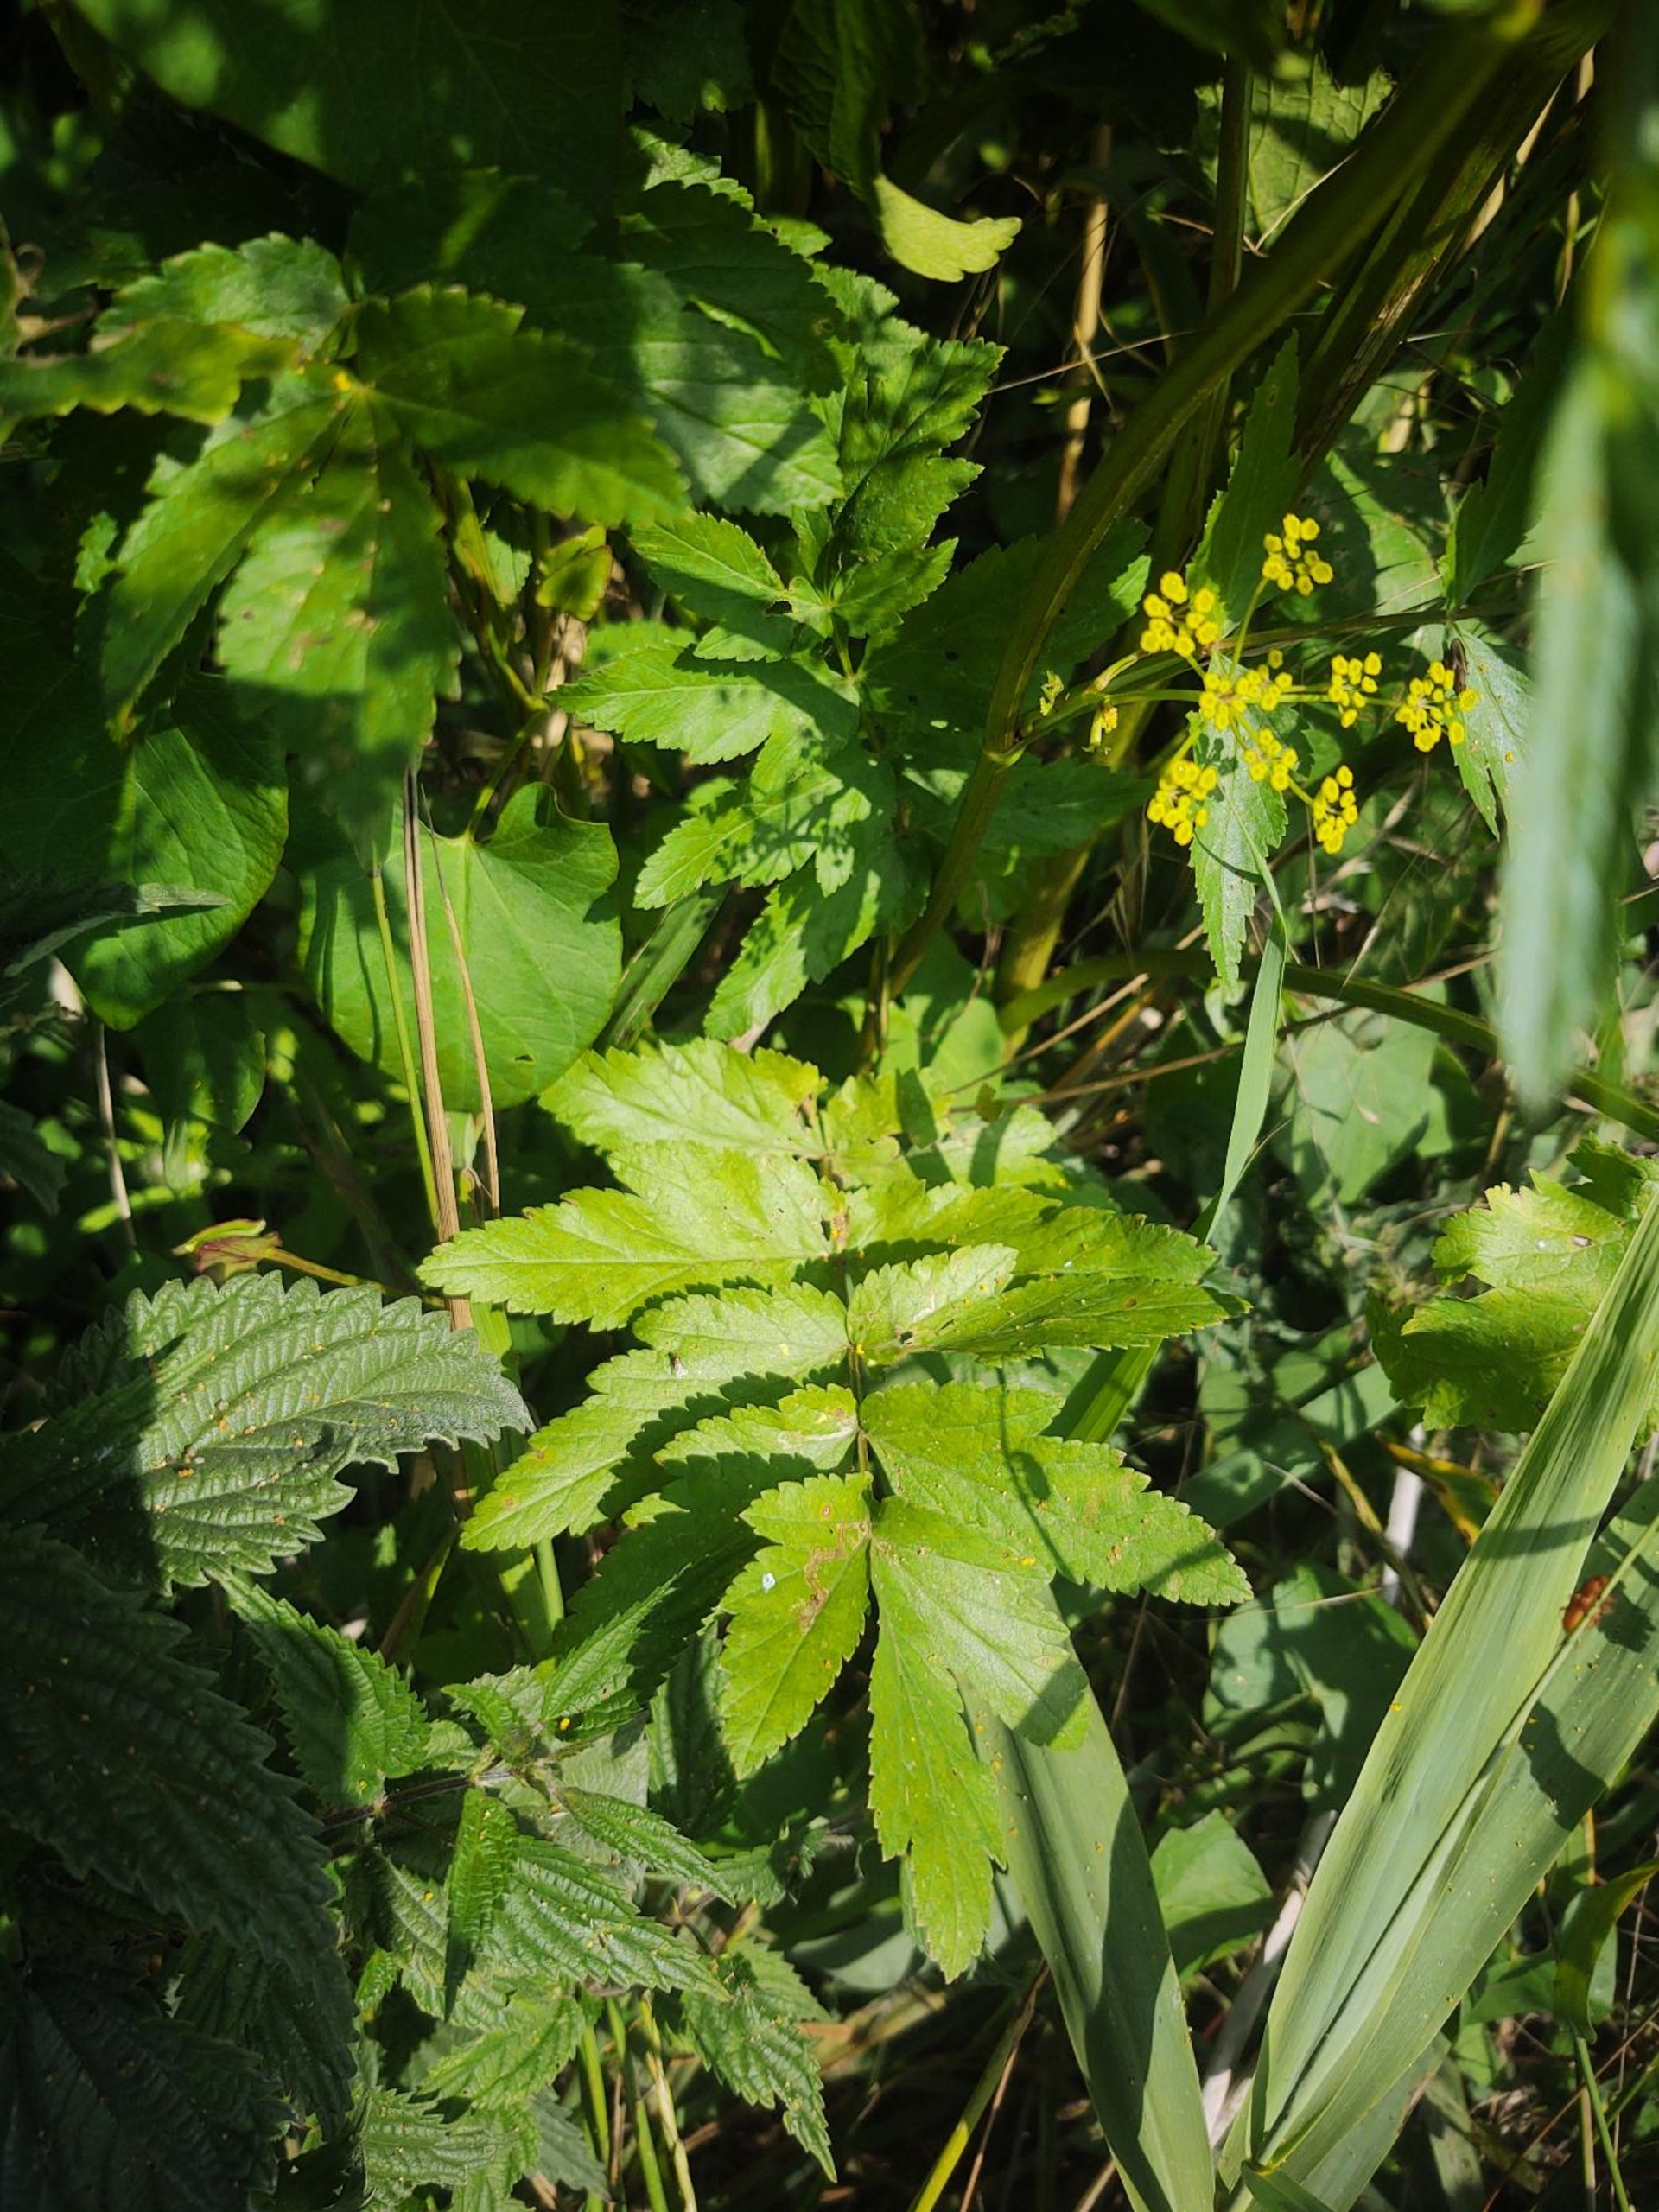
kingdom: Plantae
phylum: Tracheophyta
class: Magnoliopsida
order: Apiales
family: Apiaceae
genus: Pastinaca
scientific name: Pastinaca sativa
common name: Vild pastinak
